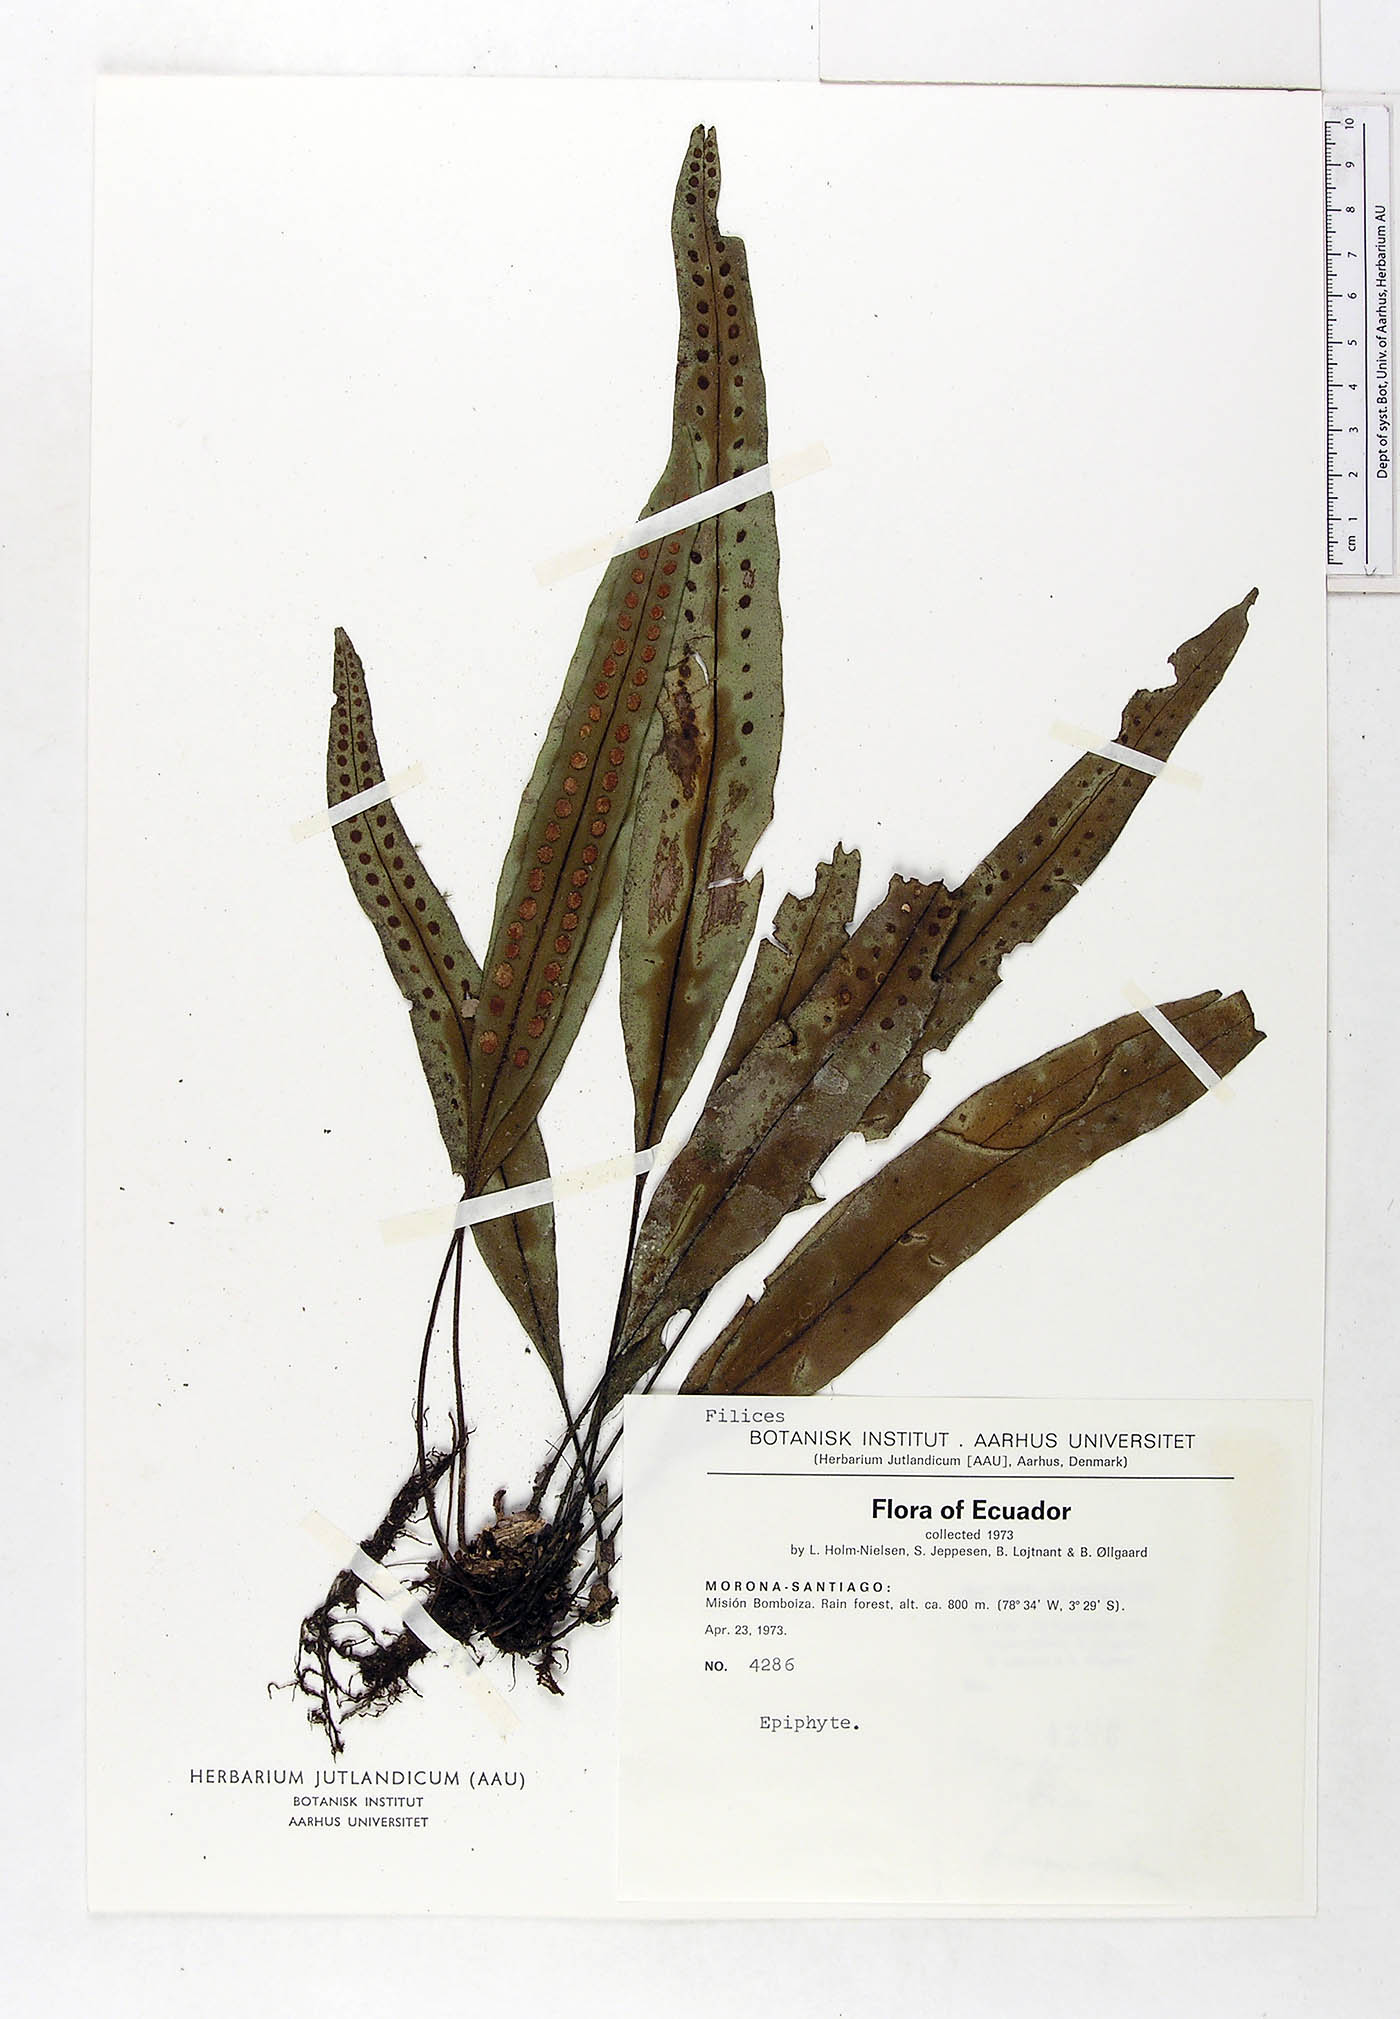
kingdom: Plantae
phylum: Tracheophyta
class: Polypodiopsida
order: Polypodiales
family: Polypodiaceae
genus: Microgramma
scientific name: Microgramma percussa
